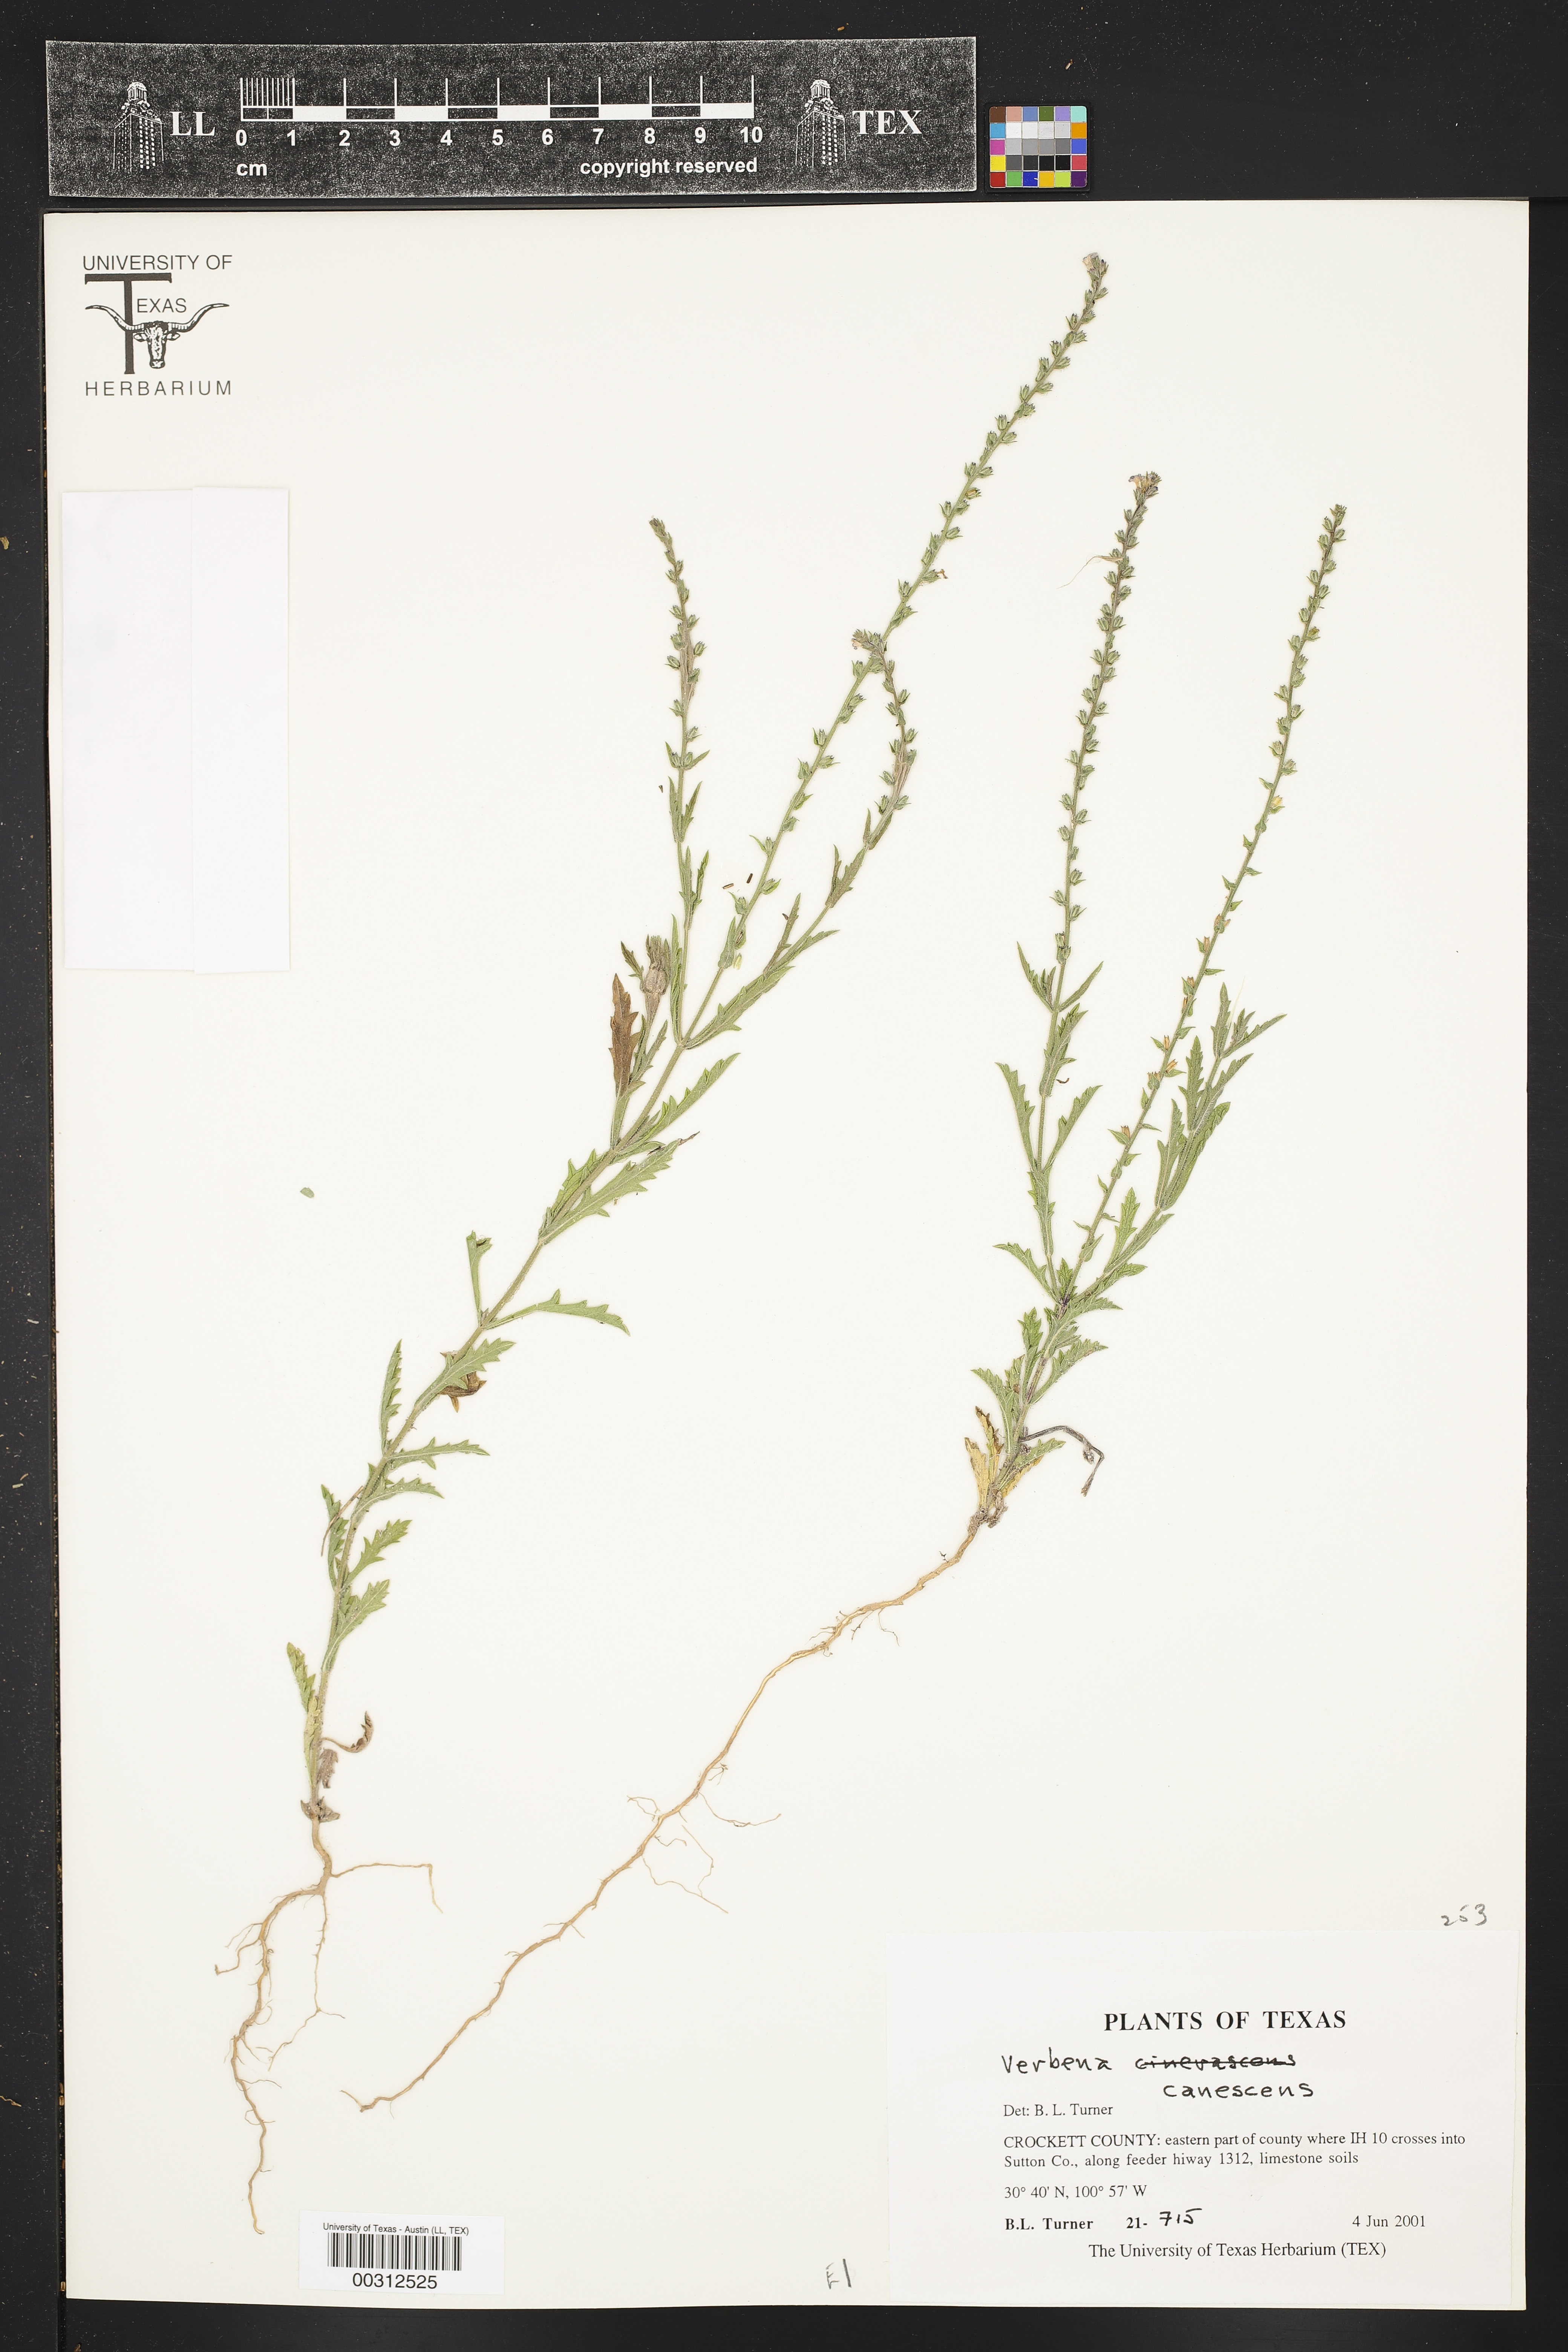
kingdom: Plantae
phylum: Tracheophyta
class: Magnoliopsida
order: Lamiales
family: Verbenaceae
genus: Verbena
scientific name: Verbena canescens
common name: Gray vervain
